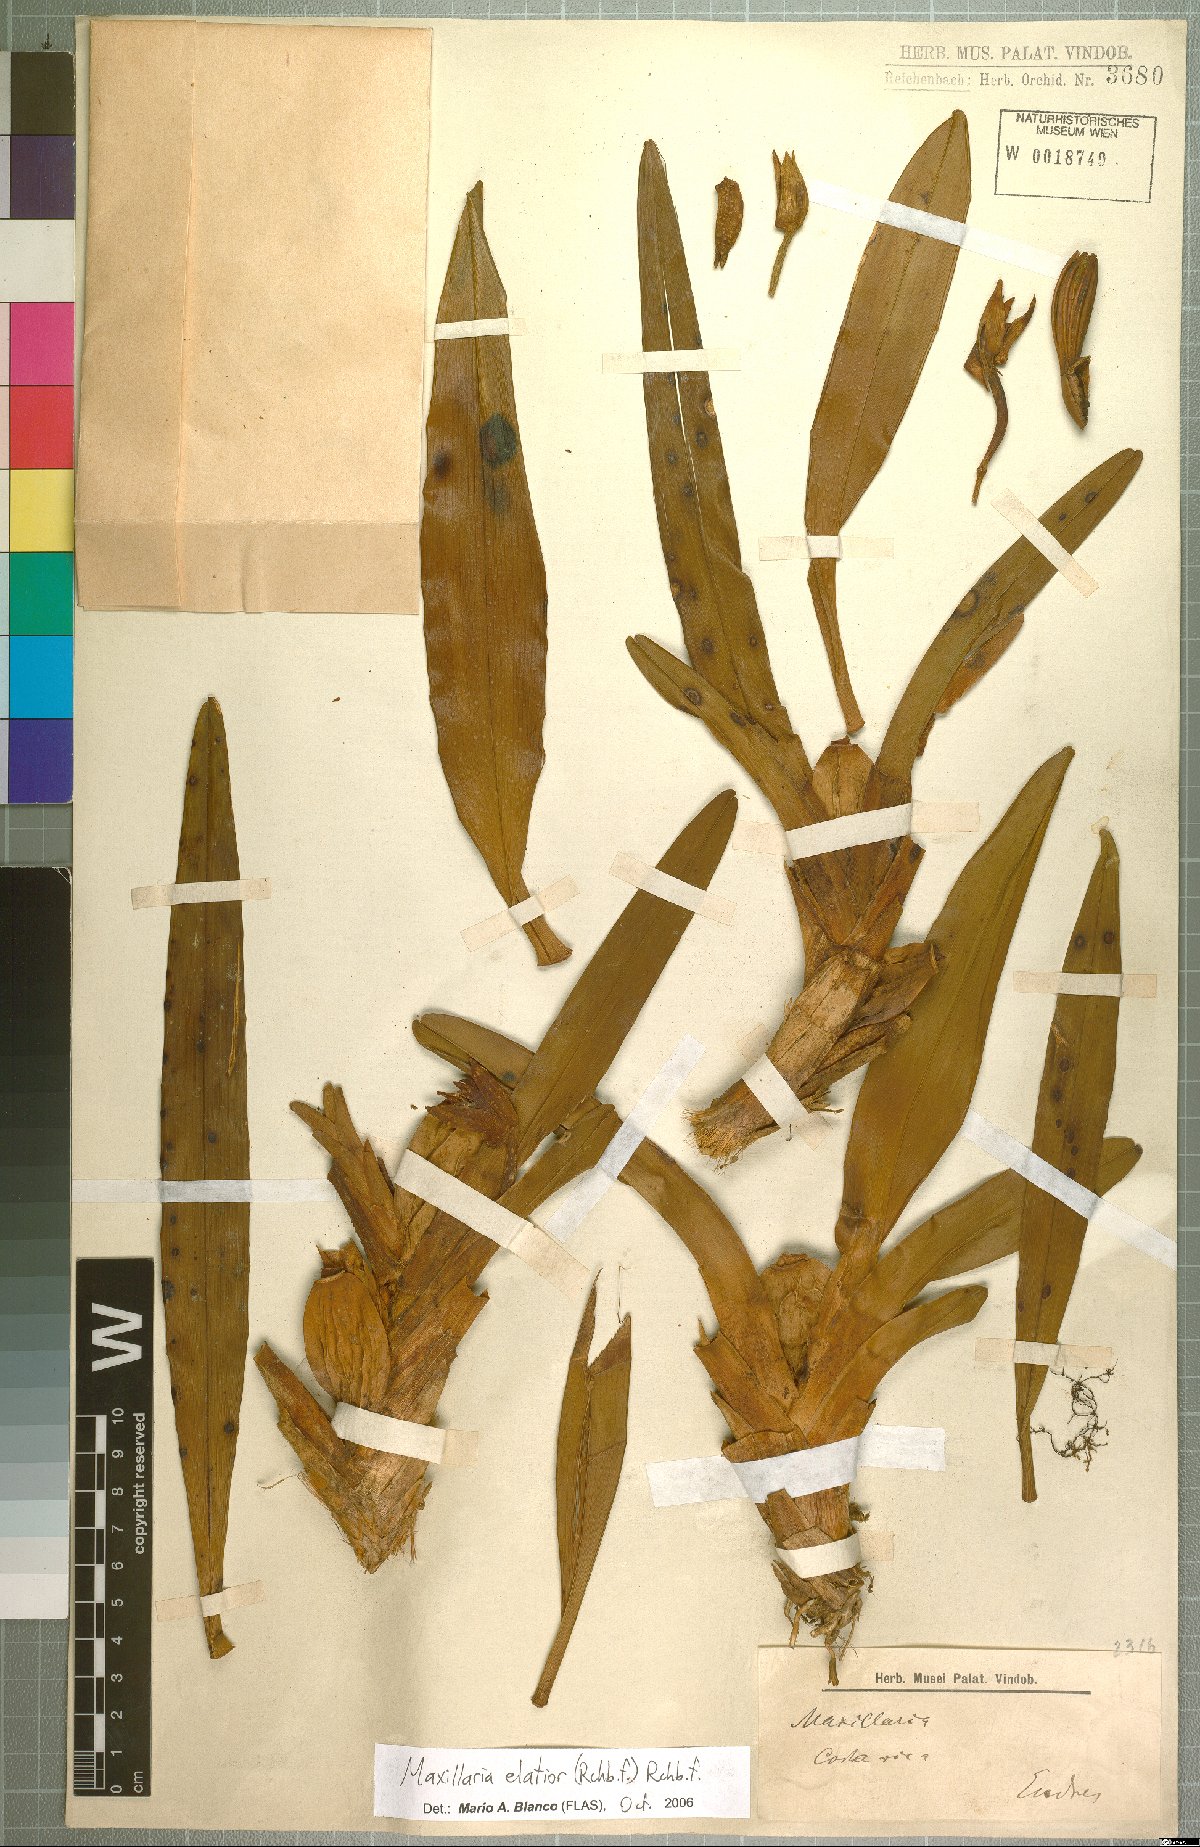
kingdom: Plantae
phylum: Tracheophyta
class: Liliopsida
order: Asparagales
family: Orchidaceae
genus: Maxillaria
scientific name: Maxillaria
